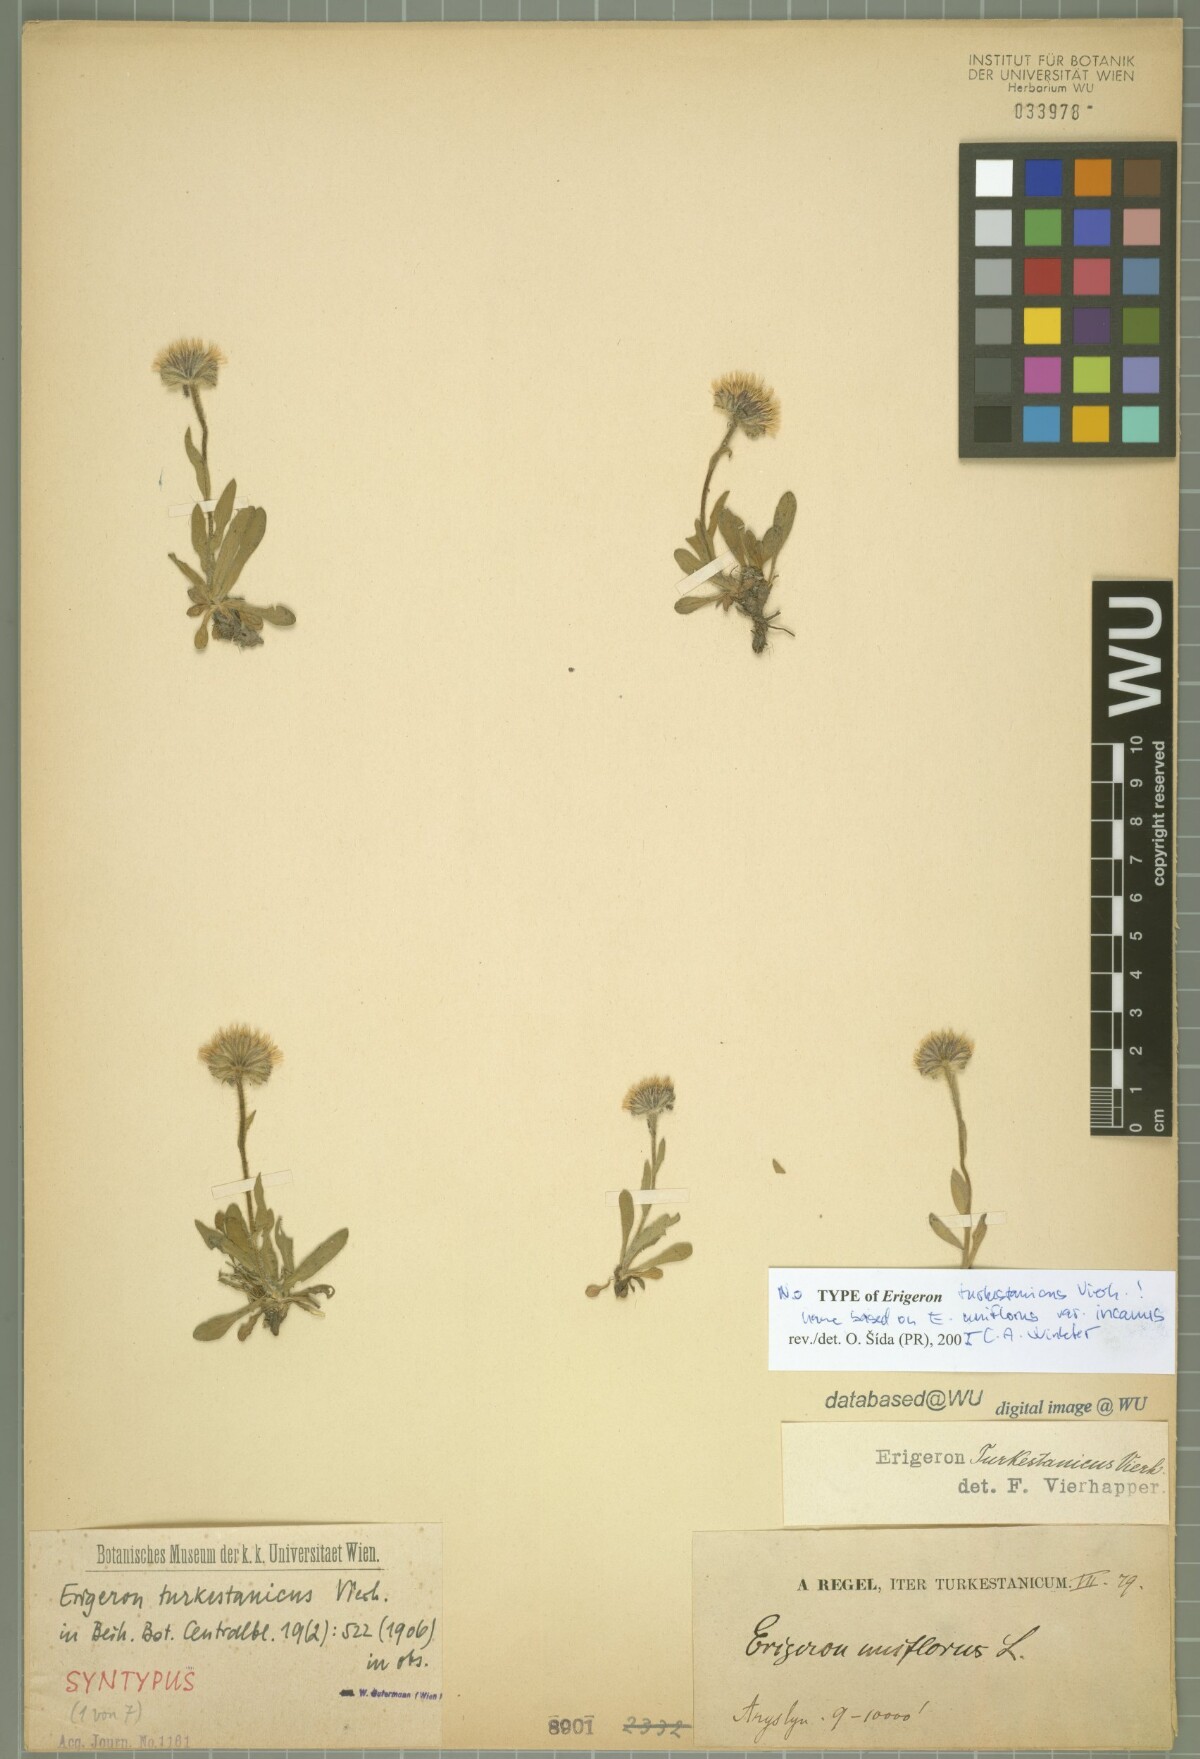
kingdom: Plantae
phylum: Tracheophyta
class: Magnoliopsida
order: Asterales
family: Asteraceae
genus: Erigeron
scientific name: Erigeron lachnocephalus
